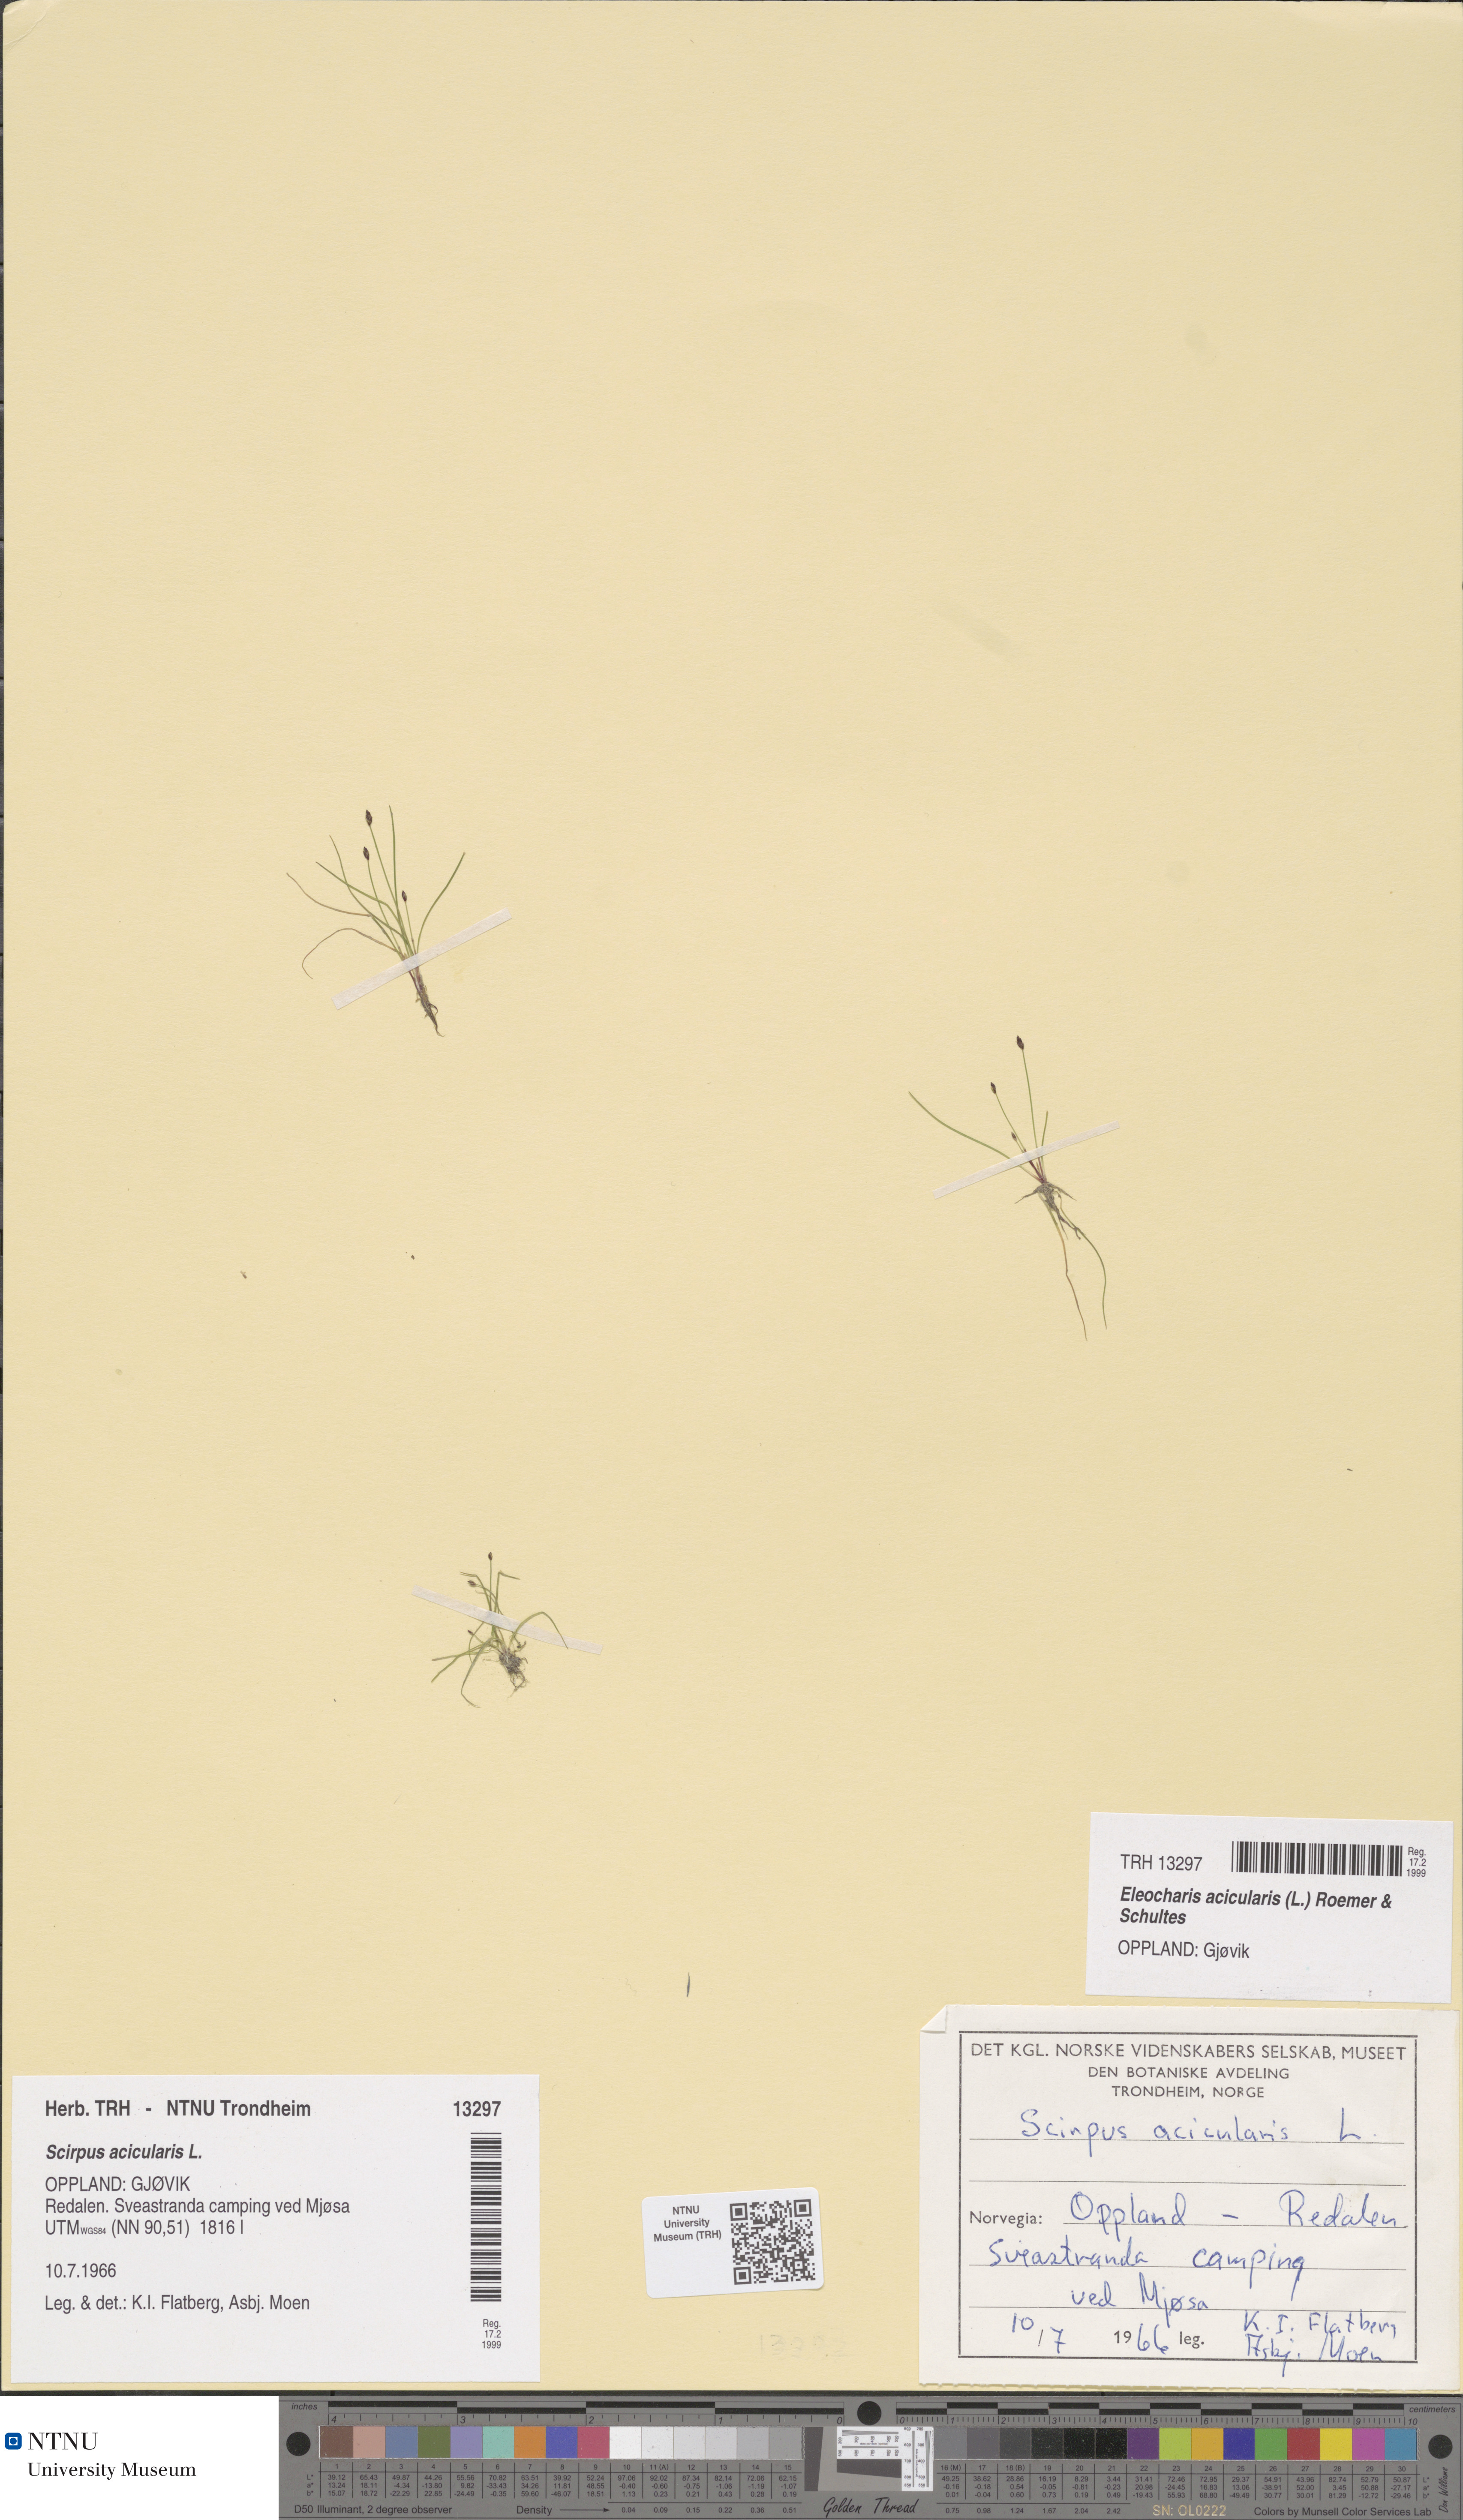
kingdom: Plantae
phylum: Tracheophyta
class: Liliopsida
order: Poales
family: Cyperaceae
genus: Eleocharis
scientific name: Eleocharis acicularis
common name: Needle spike-rush
